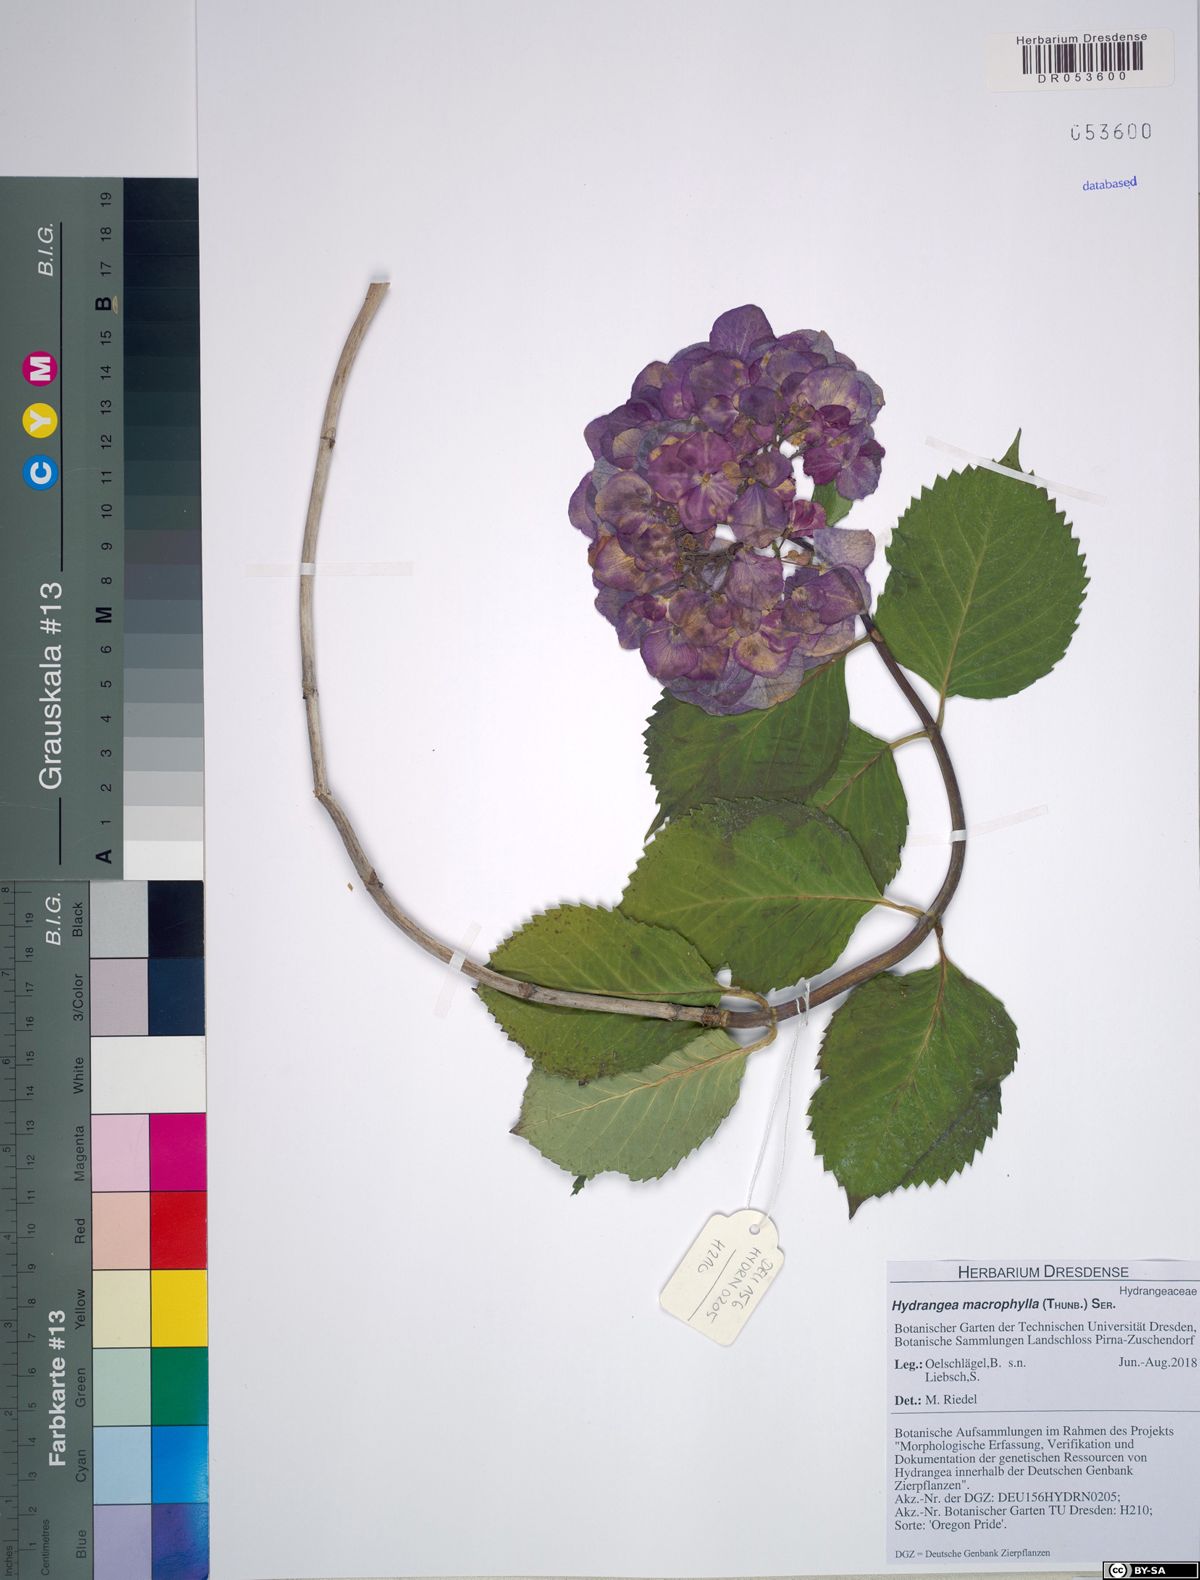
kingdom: Plantae
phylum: Tracheophyta
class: Magnoliopsida
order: Cornales
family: Hydrangeaceae
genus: Hydrangea
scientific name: Hydrangea macrophylla
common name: Hydrangea
